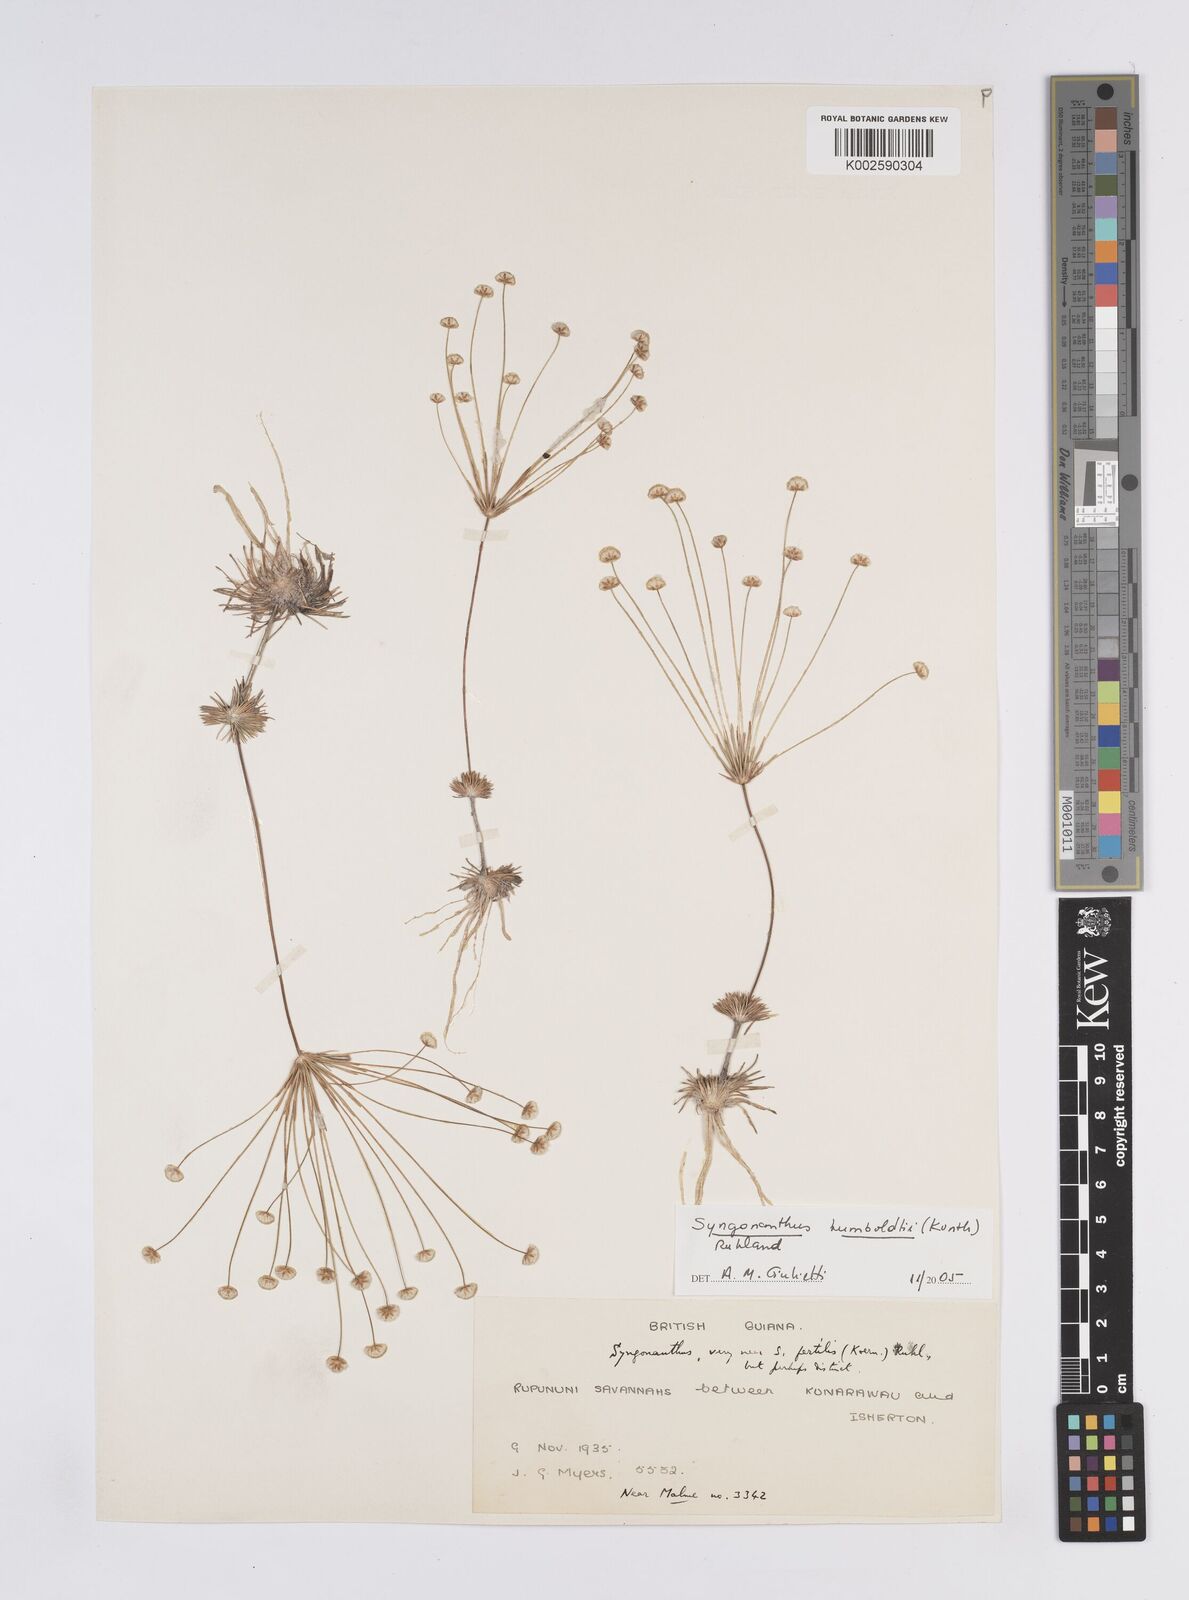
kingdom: Plantae
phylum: Tracheophyta
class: Liliopsida
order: Poales
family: Eriocaulaceae
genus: Syngonanthus
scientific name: Syngonanthus humboldtii
